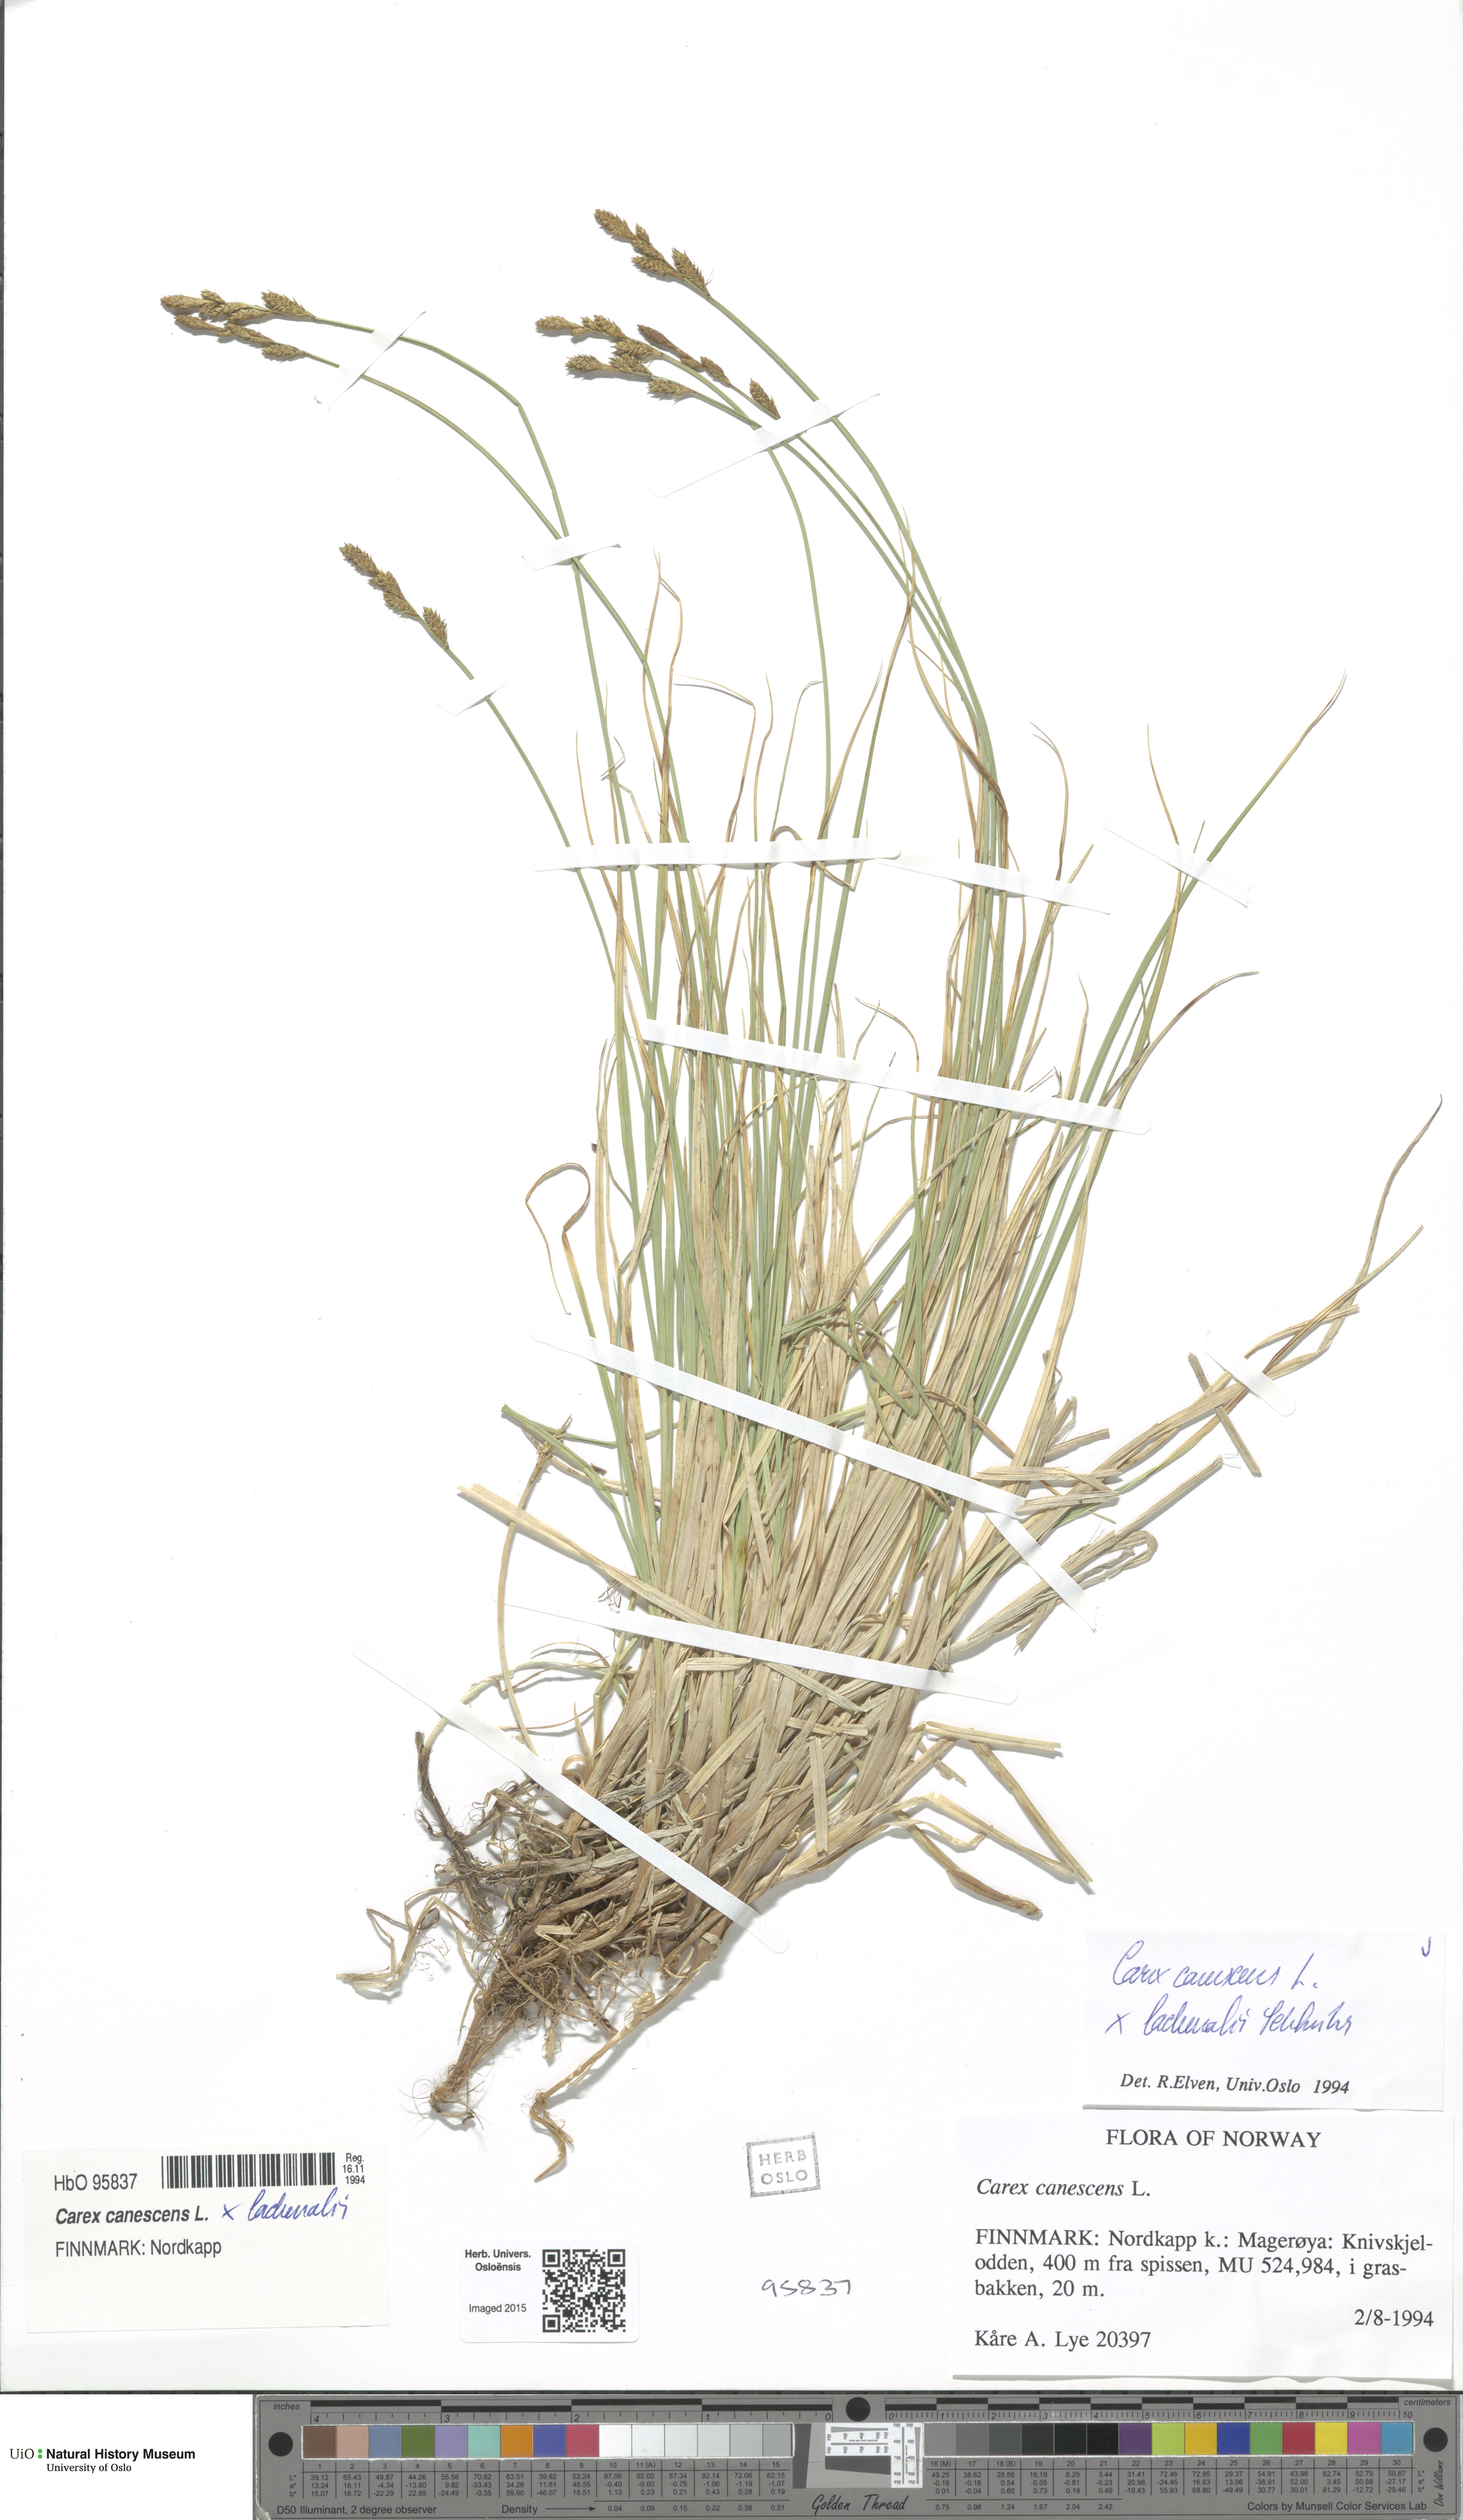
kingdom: Plantae
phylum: Tracheophyta
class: Liliopsida
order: Poales
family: Cyperaceae
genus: Carex
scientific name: Carex
